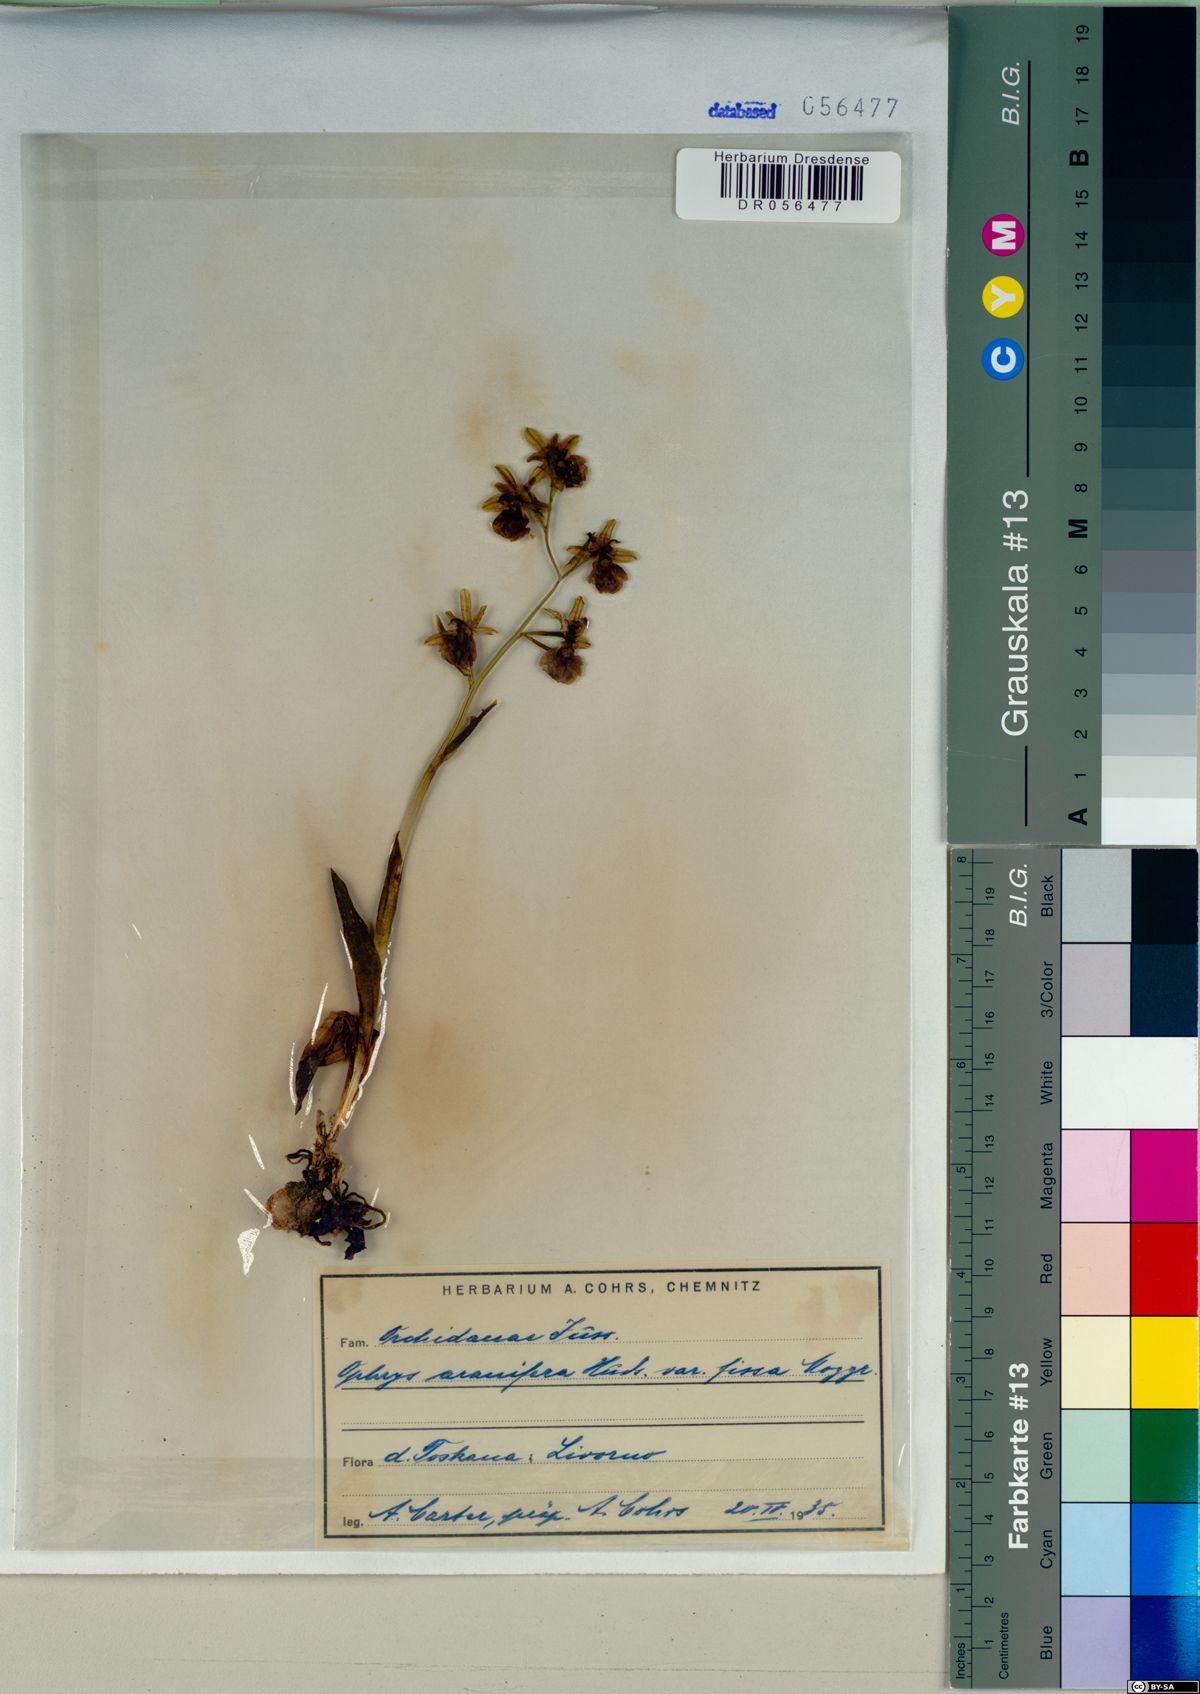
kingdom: Plantae
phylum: Tracheophyta
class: Liliopsida
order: Asparagales
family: Orchidaceae
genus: Ophrys
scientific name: Ophrys sphegodes
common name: Early spider-orchid
